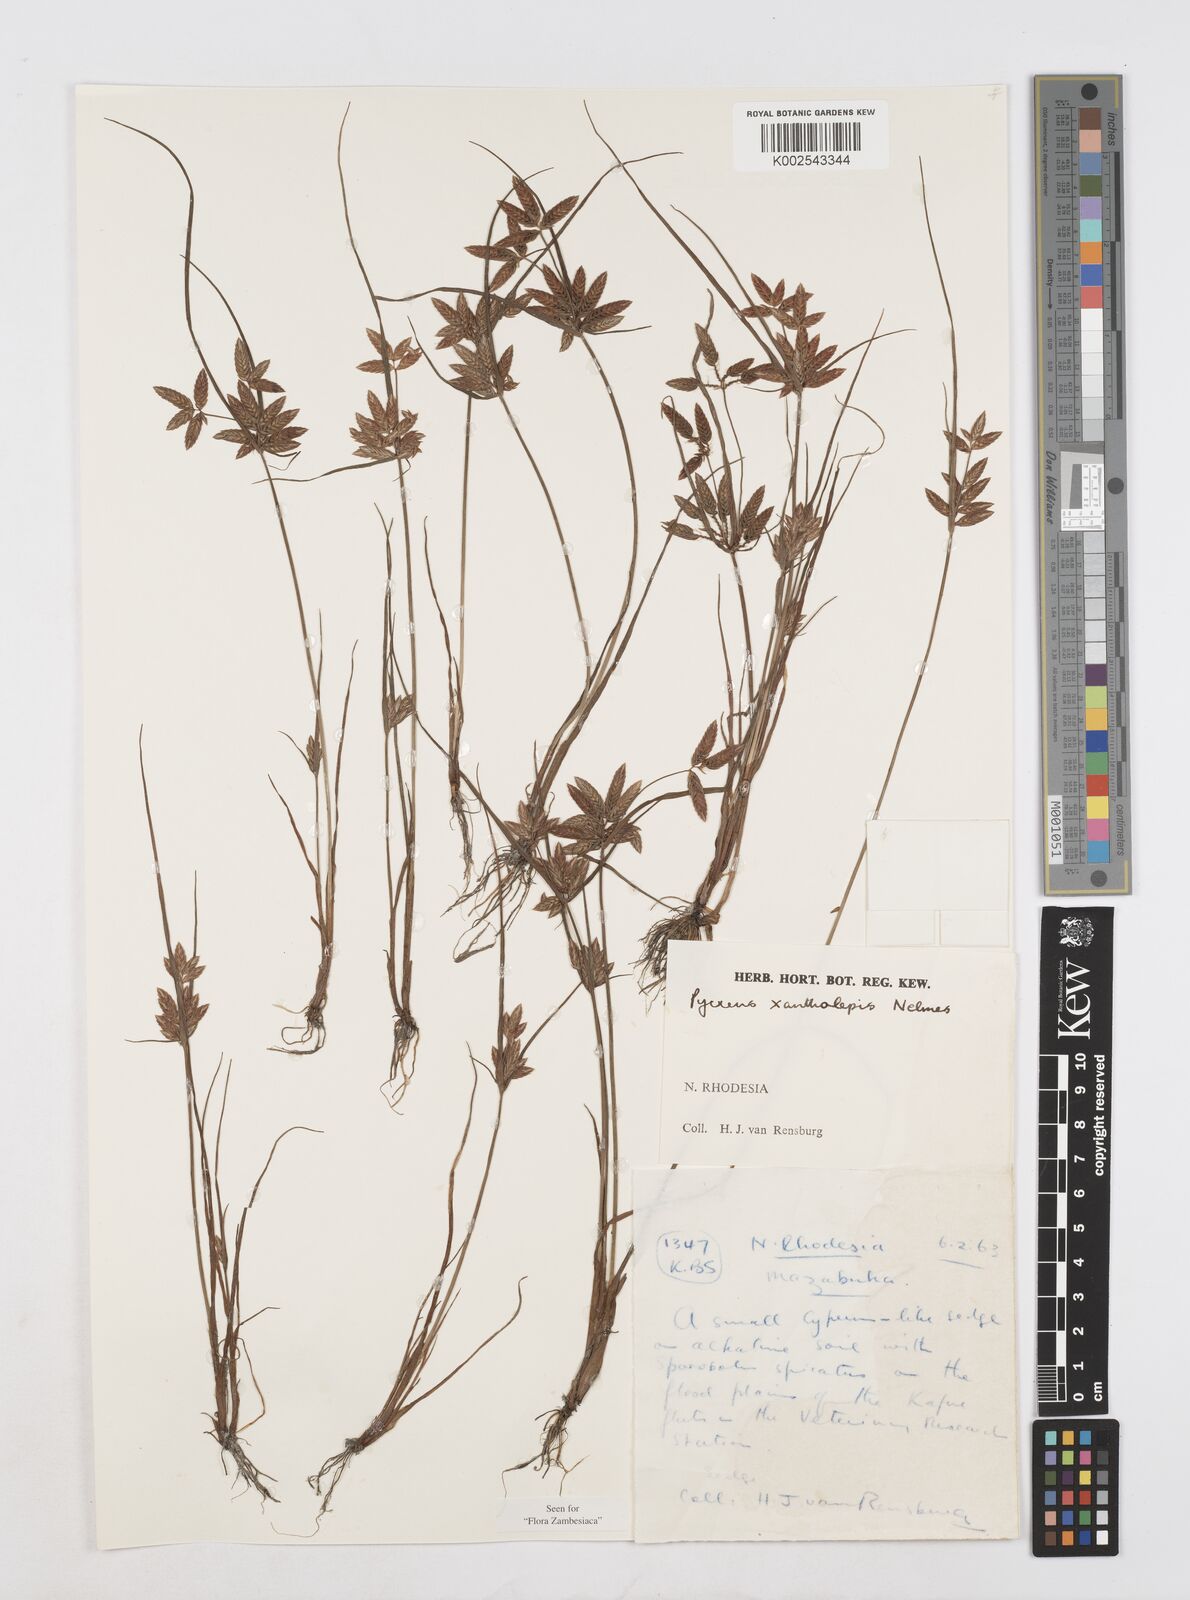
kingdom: Plantae
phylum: Tracheophyta
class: Liliopsida
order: Poales
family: Cyperaceae
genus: Cyperus
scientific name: Cyperus xantholepis
